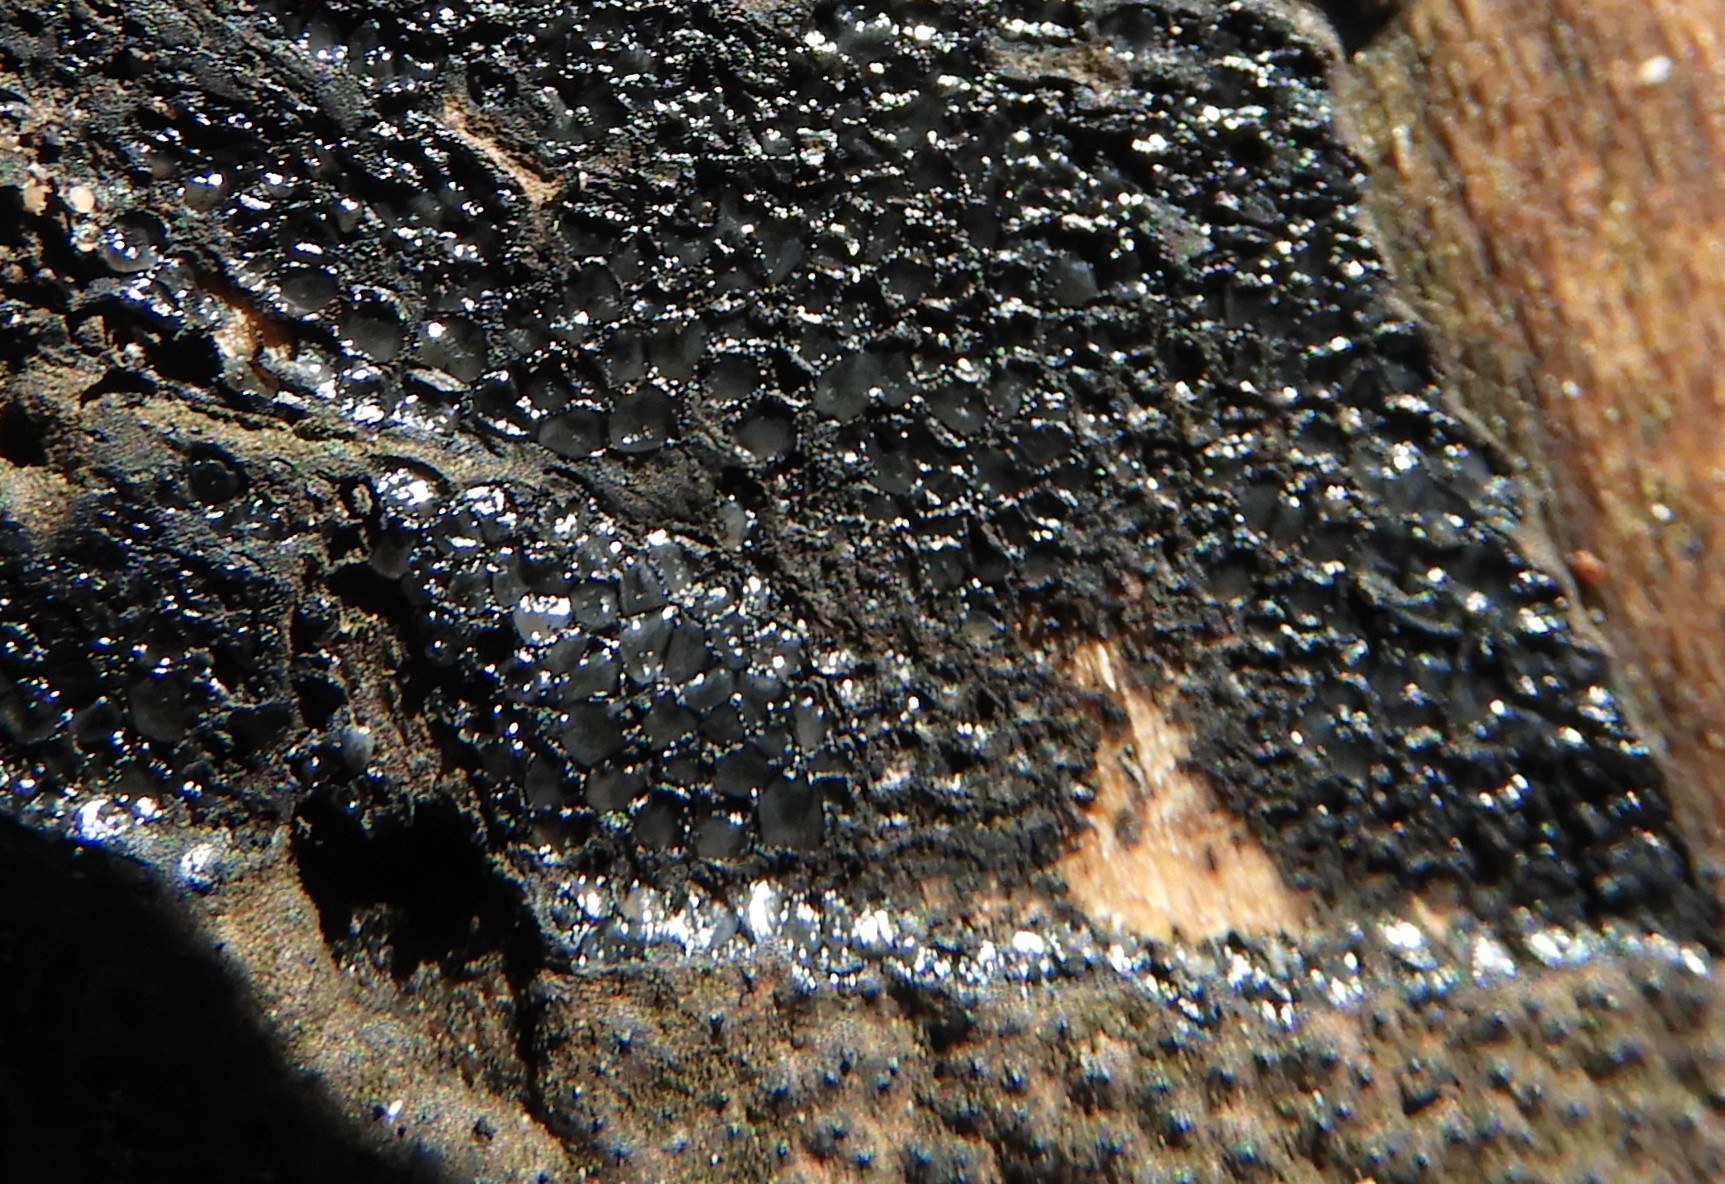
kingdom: Fungi
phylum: Ascomycota
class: Sordariomycetes
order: Xylariales
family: Xylariaceae
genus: Nemania
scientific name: Nemania
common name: kuldyne
